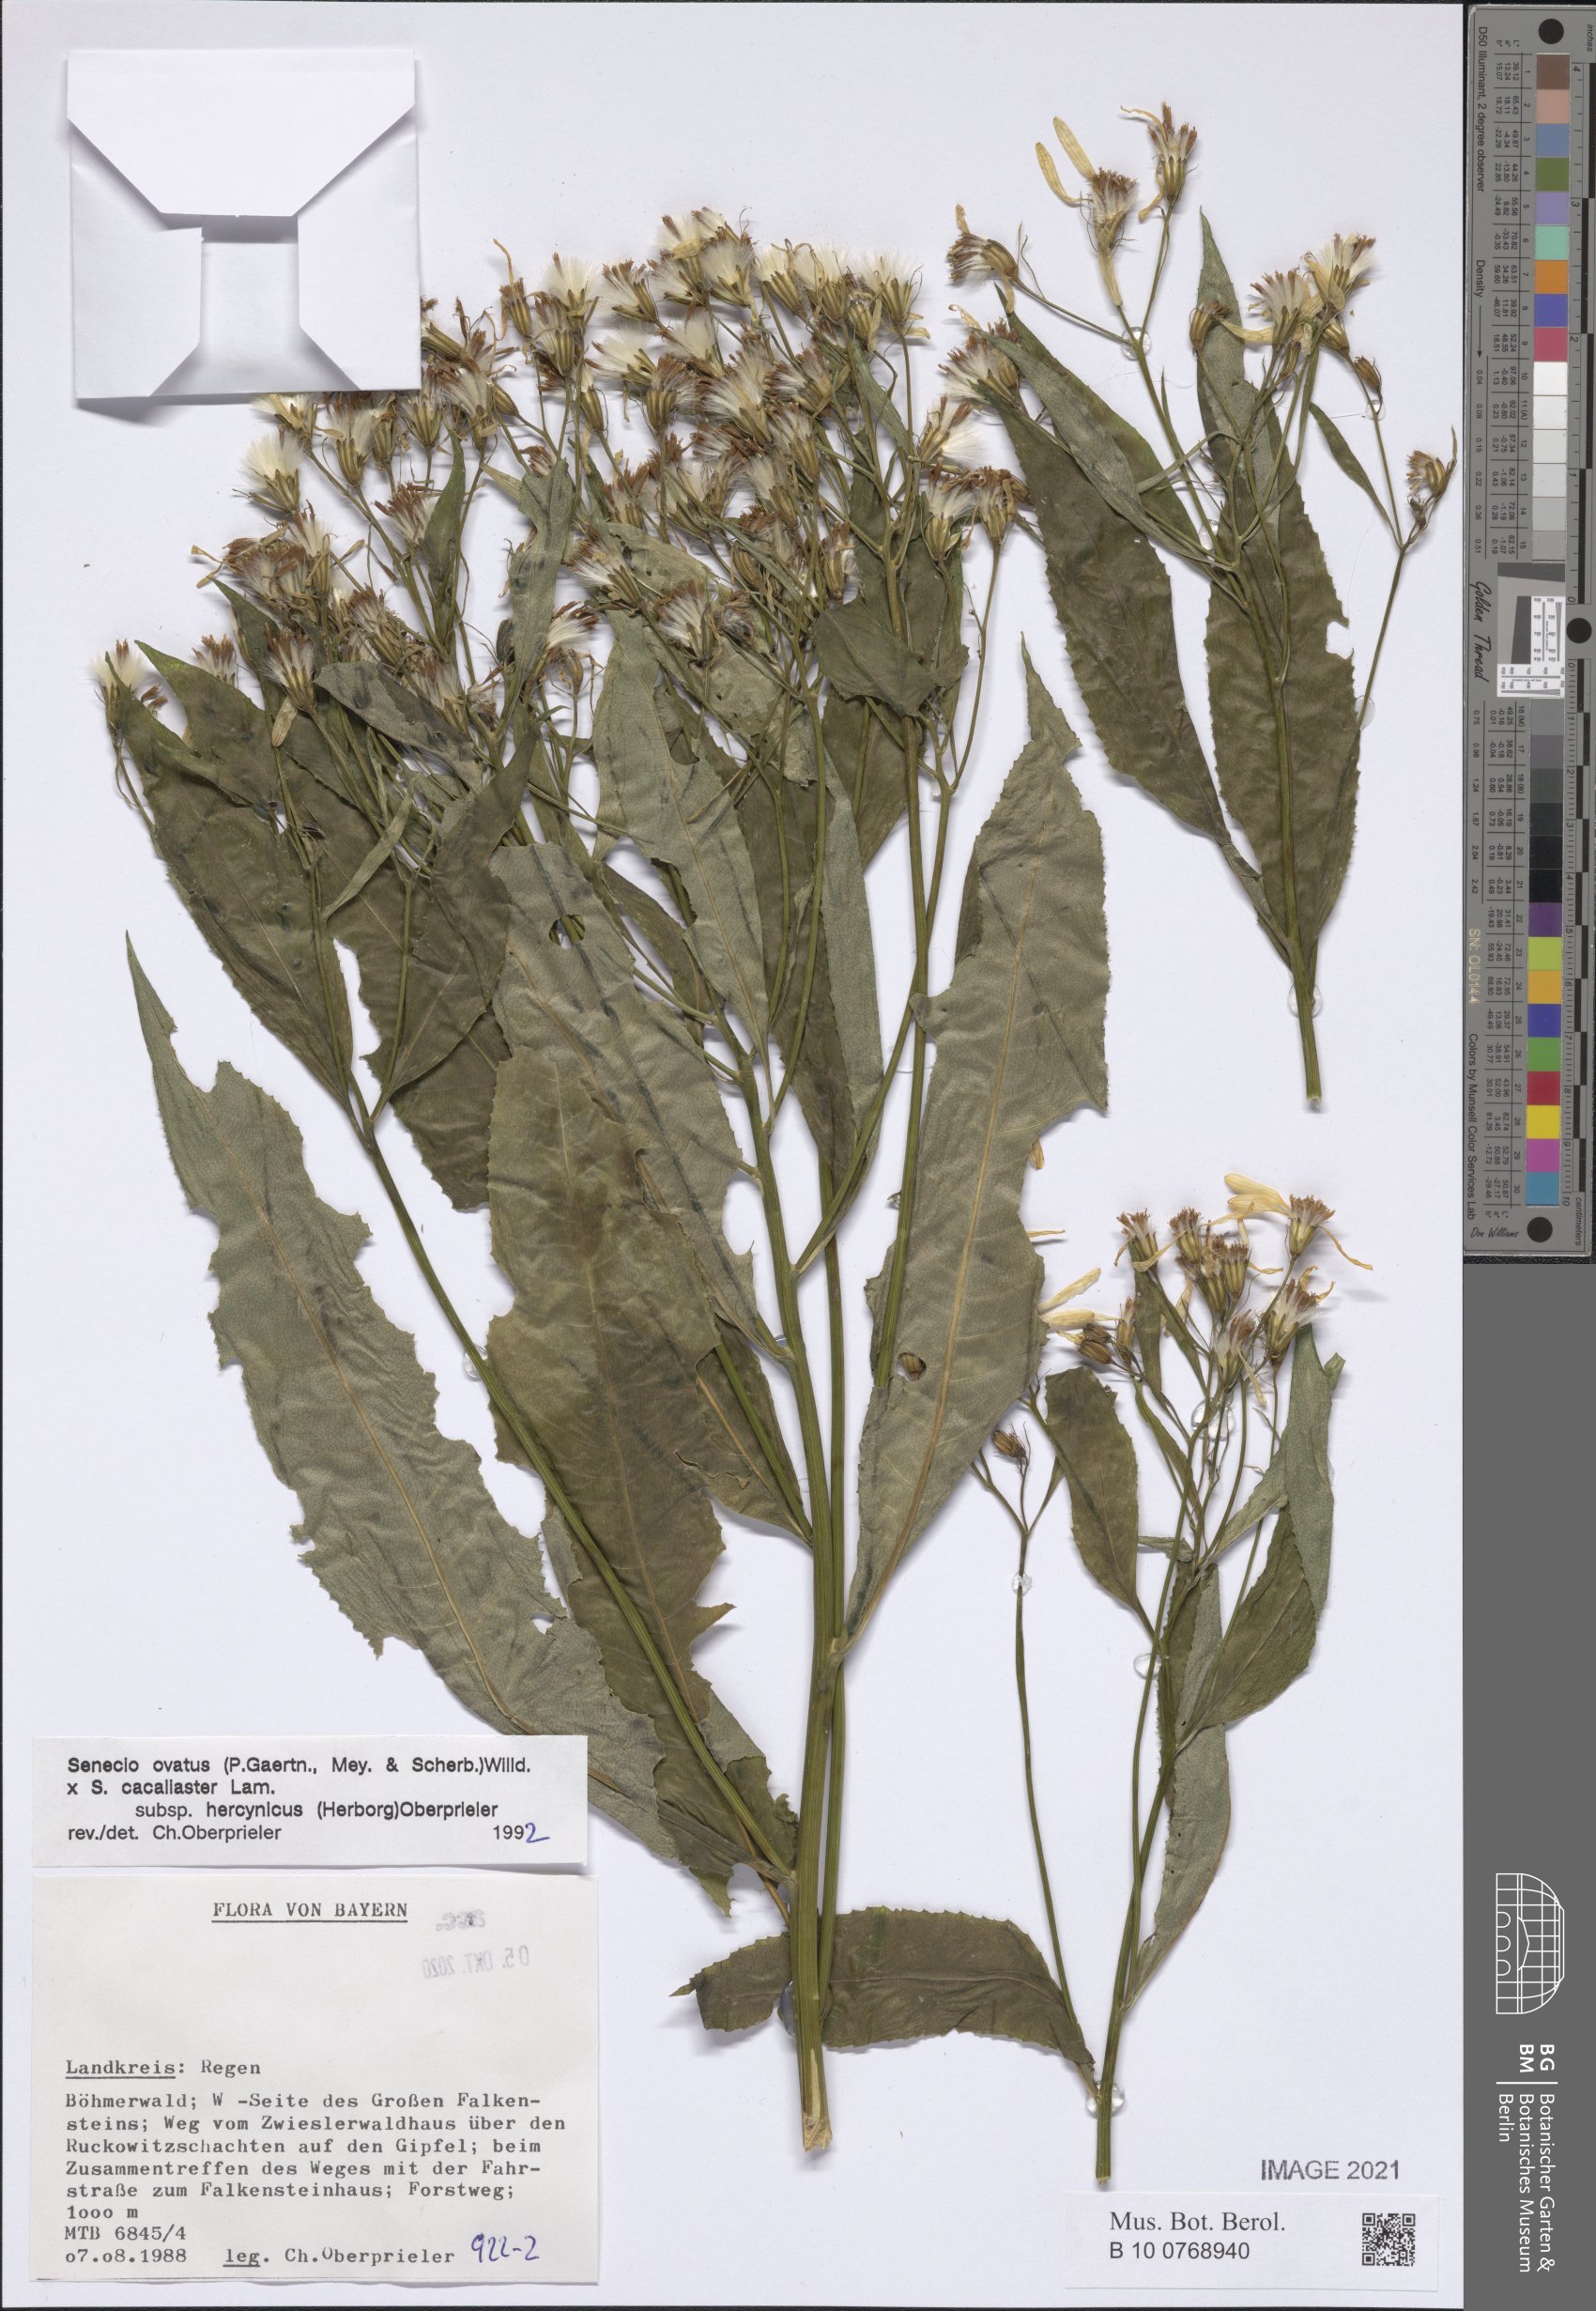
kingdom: Plantae
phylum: Tracheophyta
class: Magnoliopsida
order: Asterales
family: Asteraceae
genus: Senecio
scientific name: Senecio ovatus
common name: Wood ragwort
